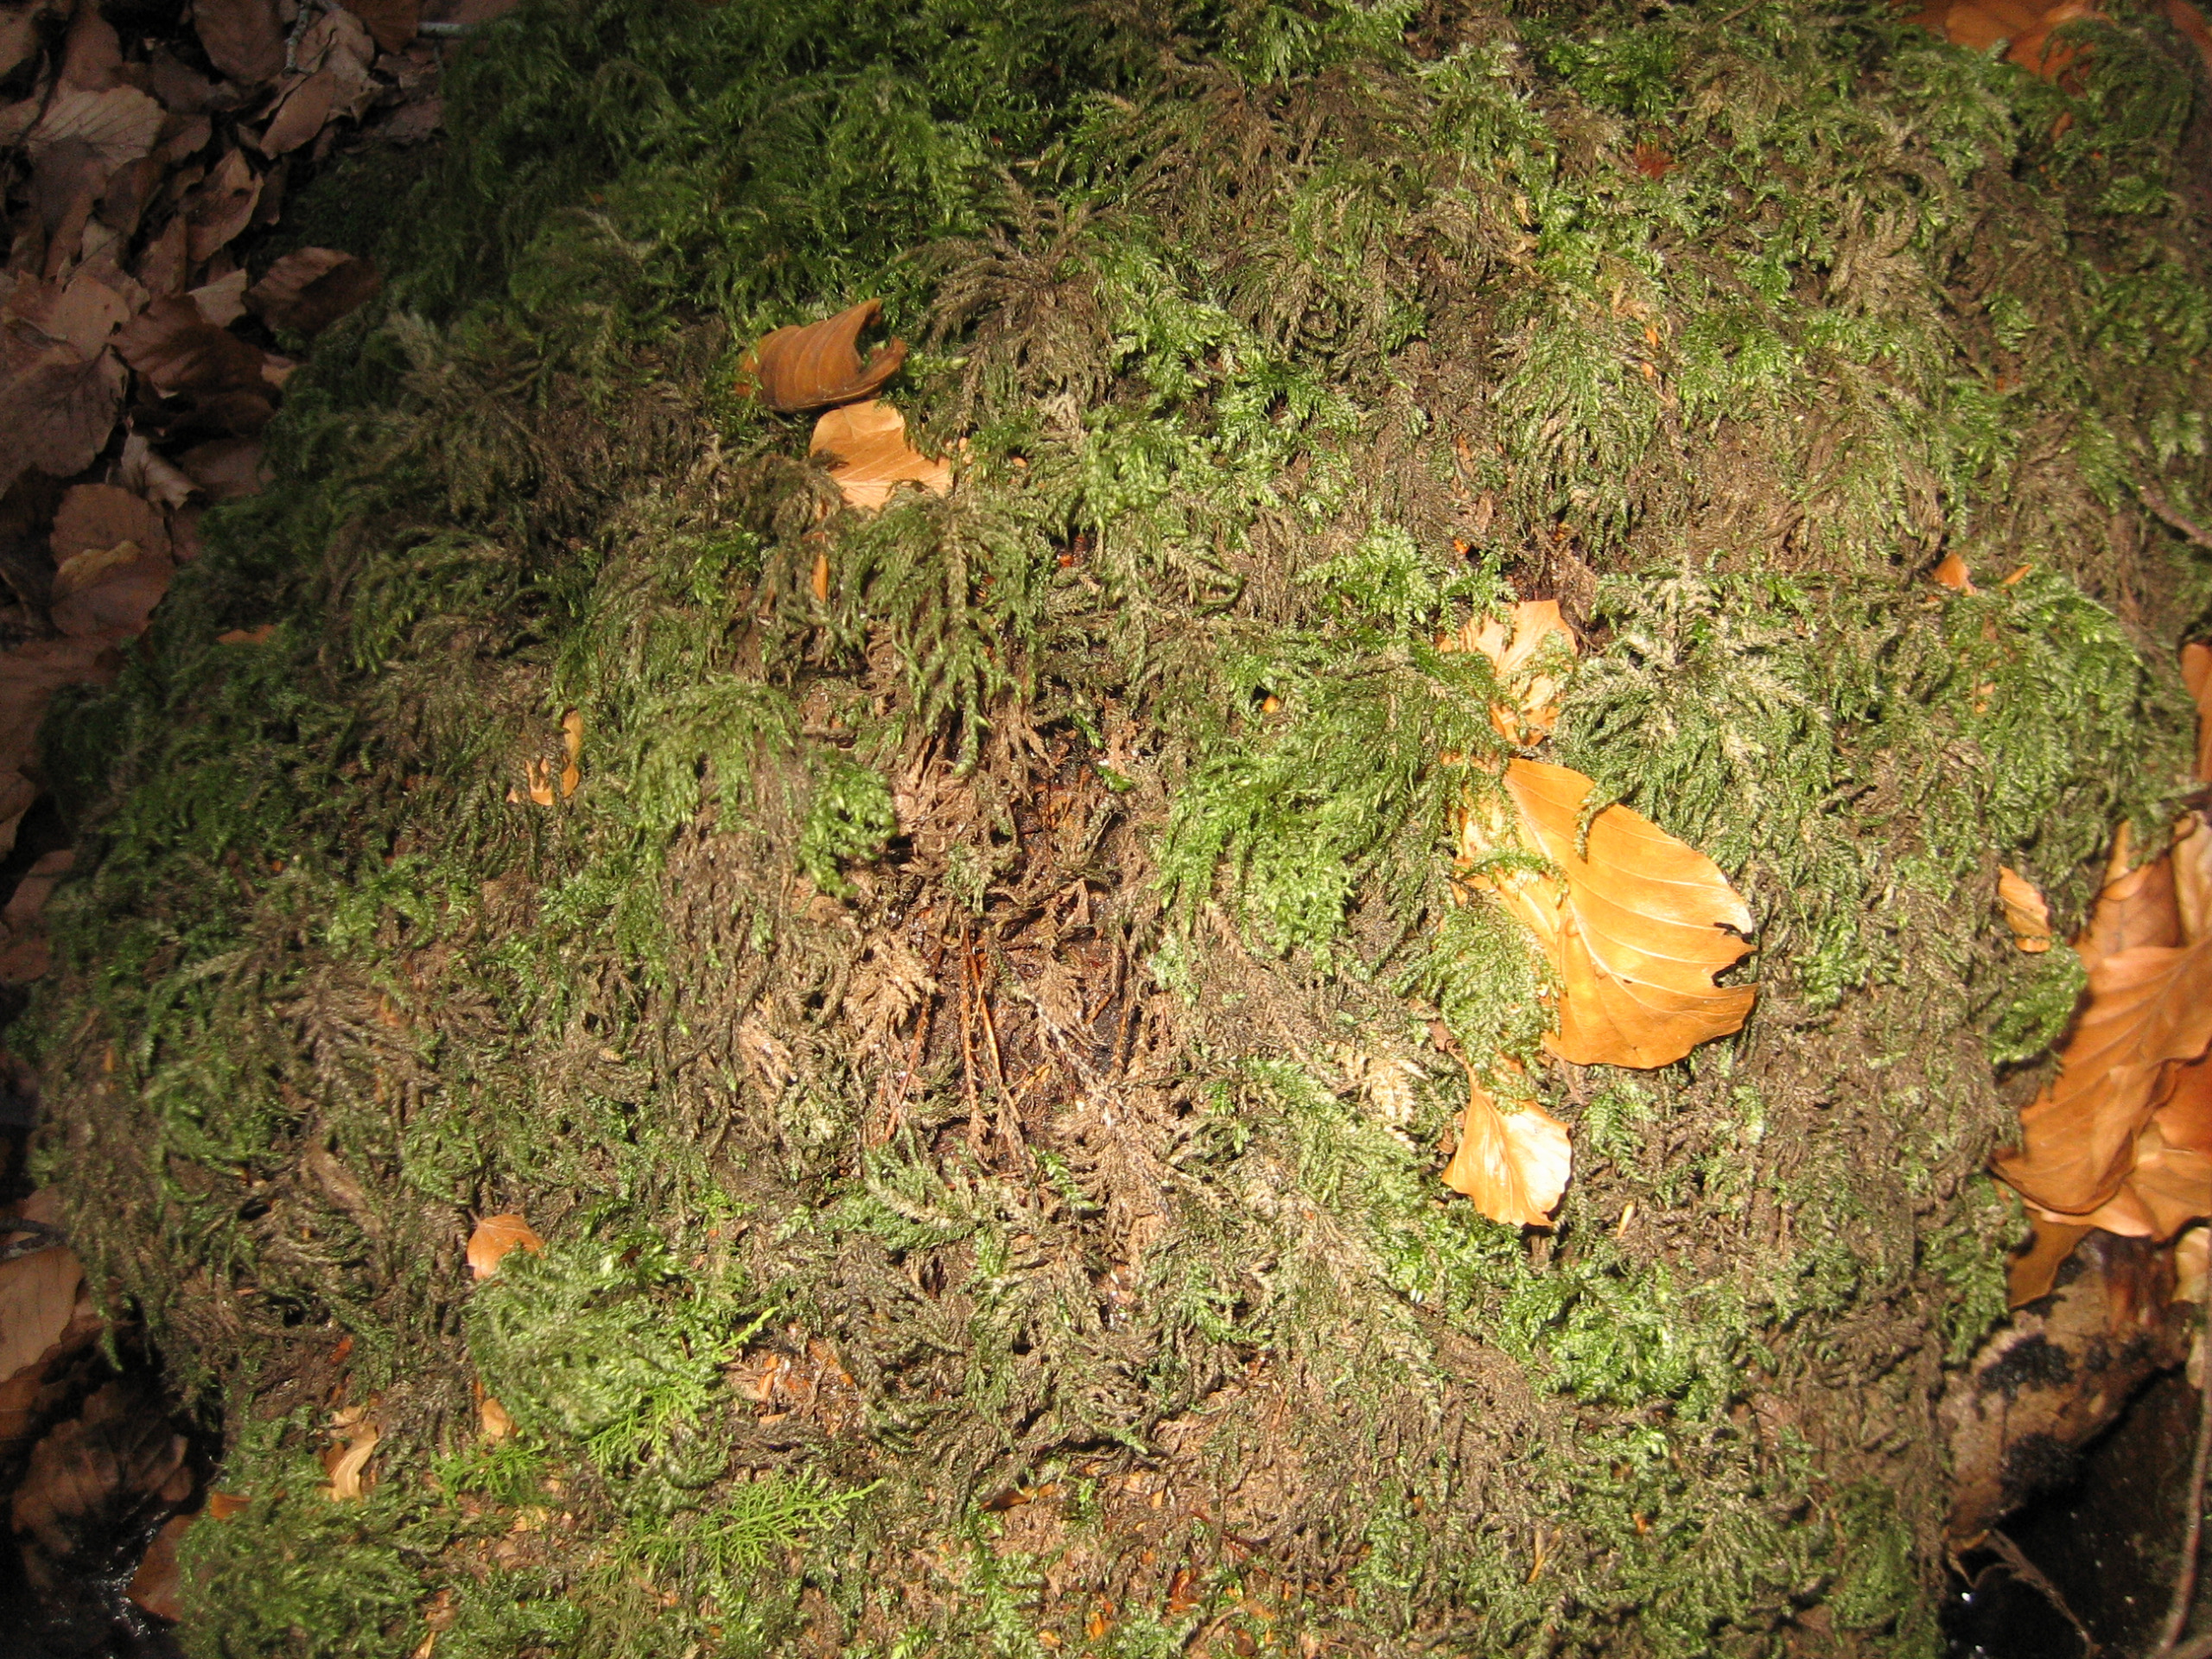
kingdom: Plantae
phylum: Bryophyta
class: Bryopsida
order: Hypnales
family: Neckeraceae
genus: Thamnobryum
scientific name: Thamnobryum alopecurum
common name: Mat bækkost
